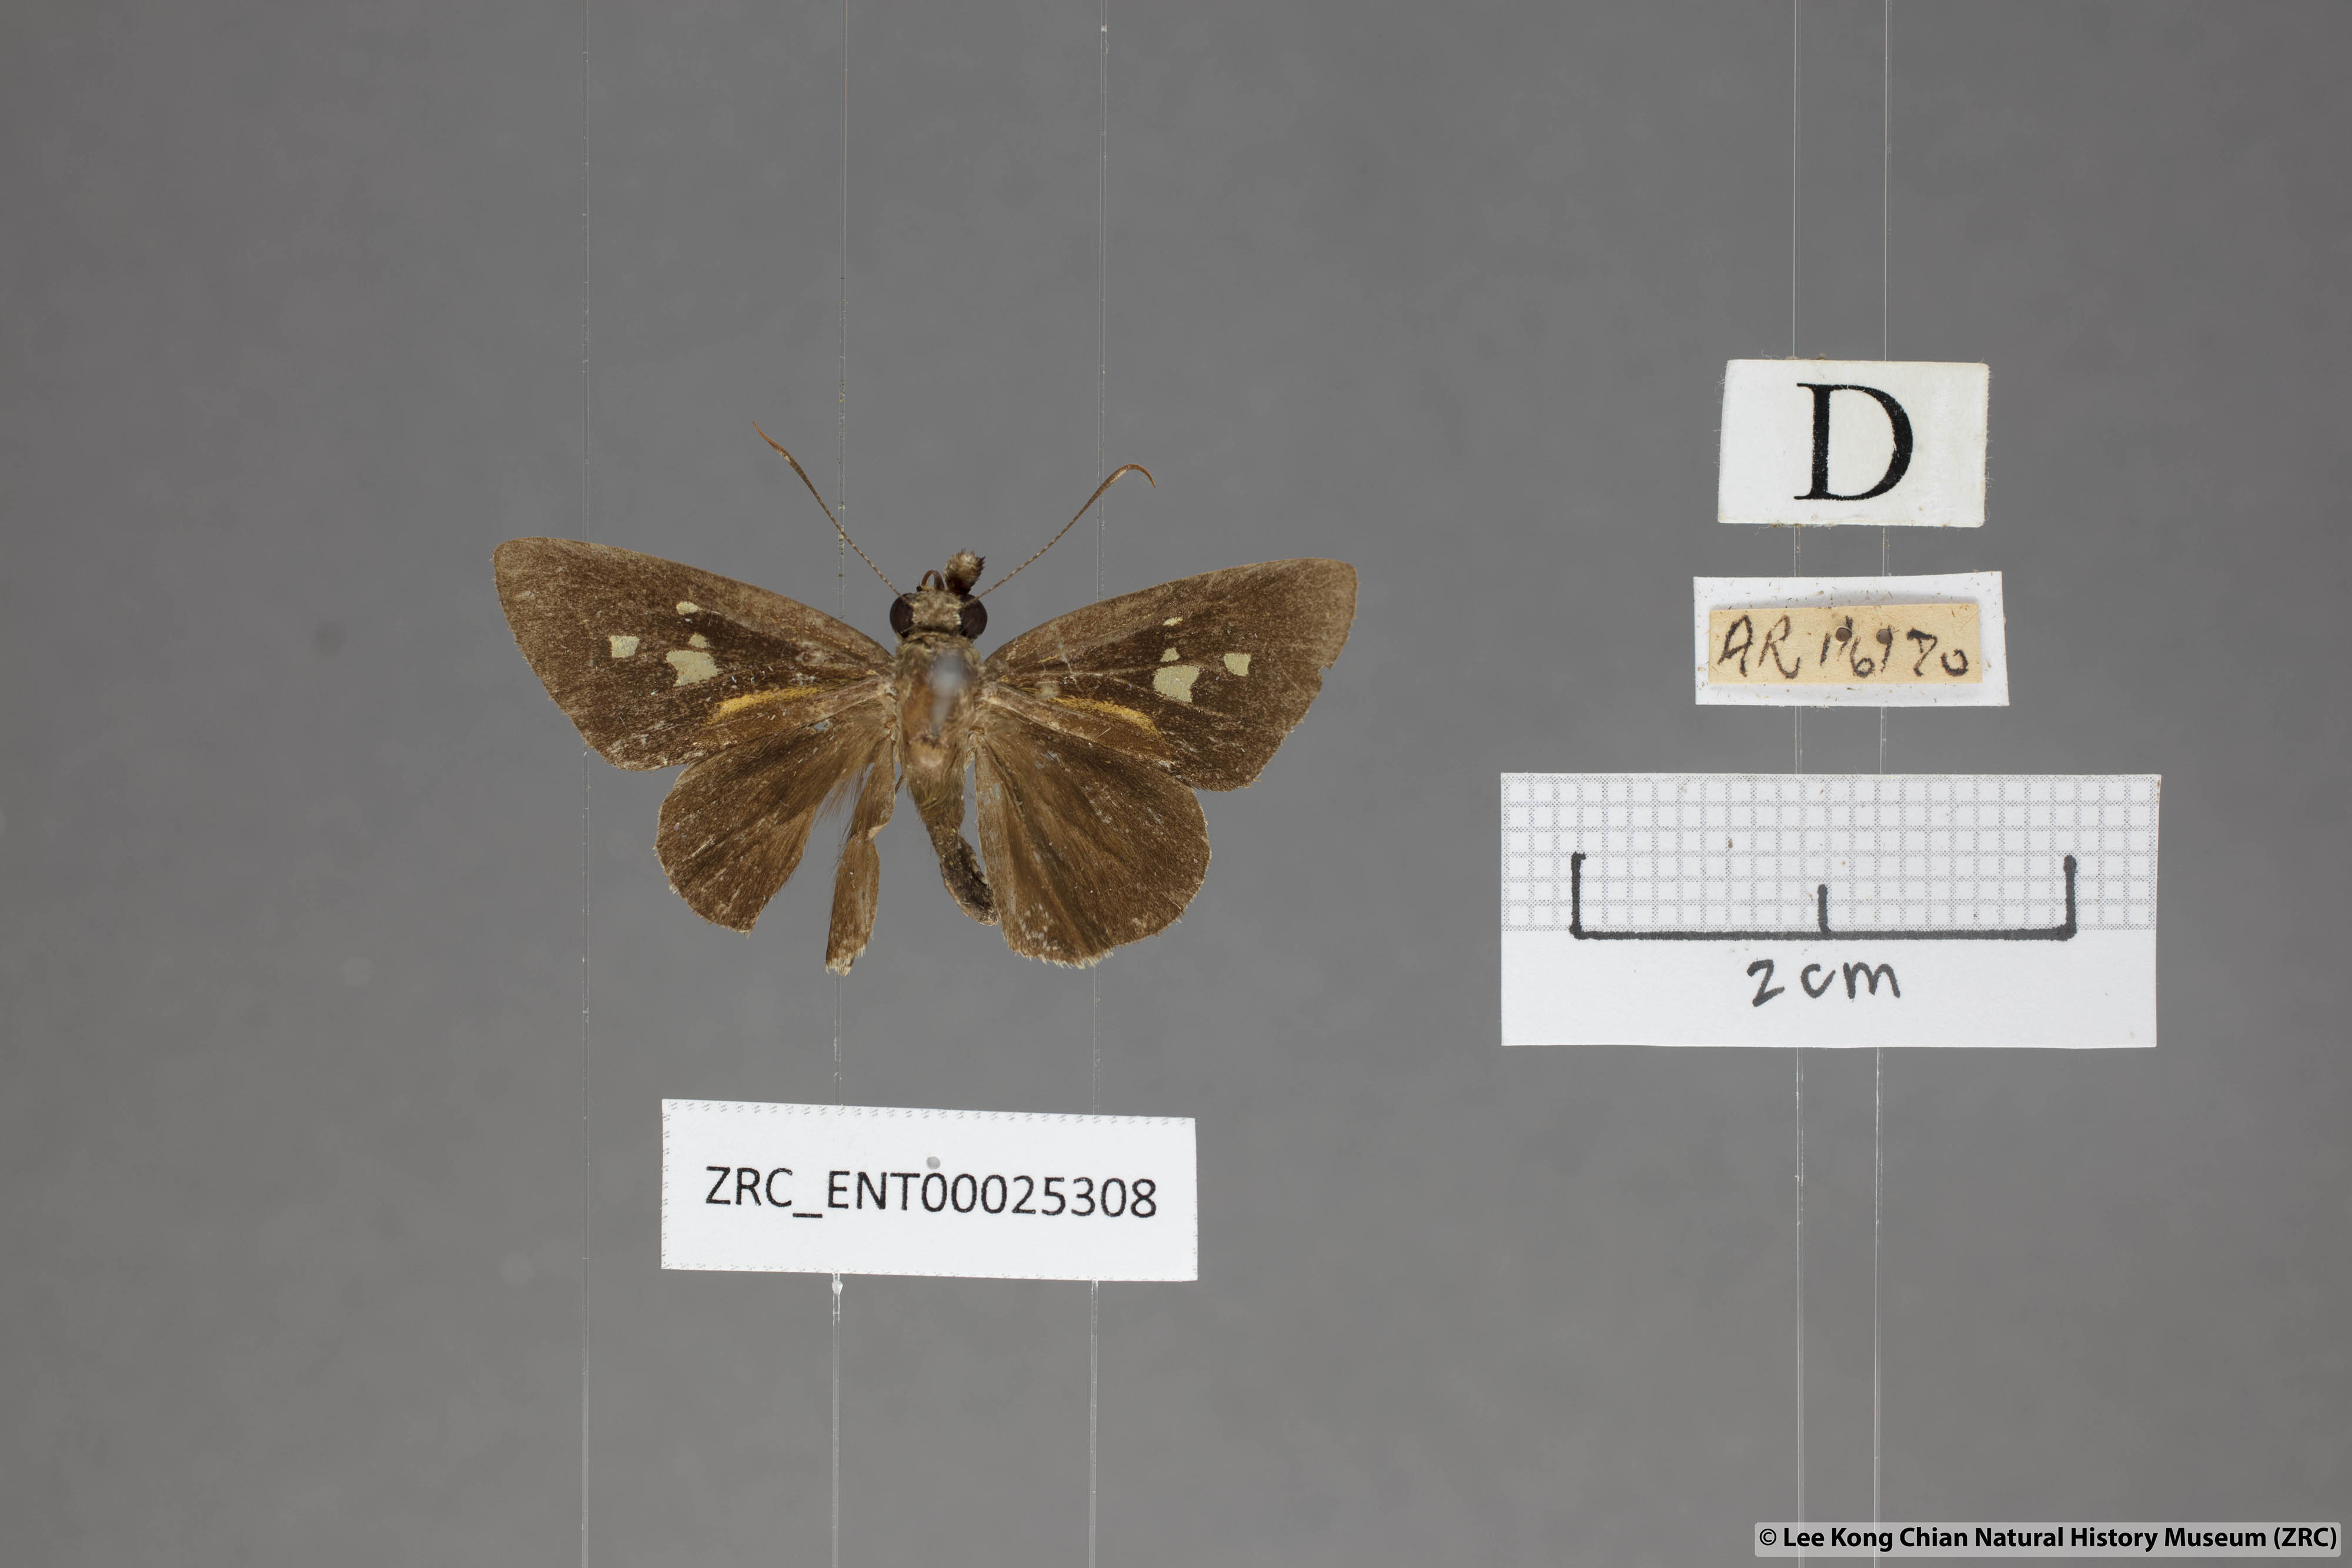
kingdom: Animalia
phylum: Arthropoda
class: Insecta
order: Lepidoptera
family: Hesperiidae
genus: Salanoemia
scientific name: Salanoemia sala
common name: Maculate lancer
